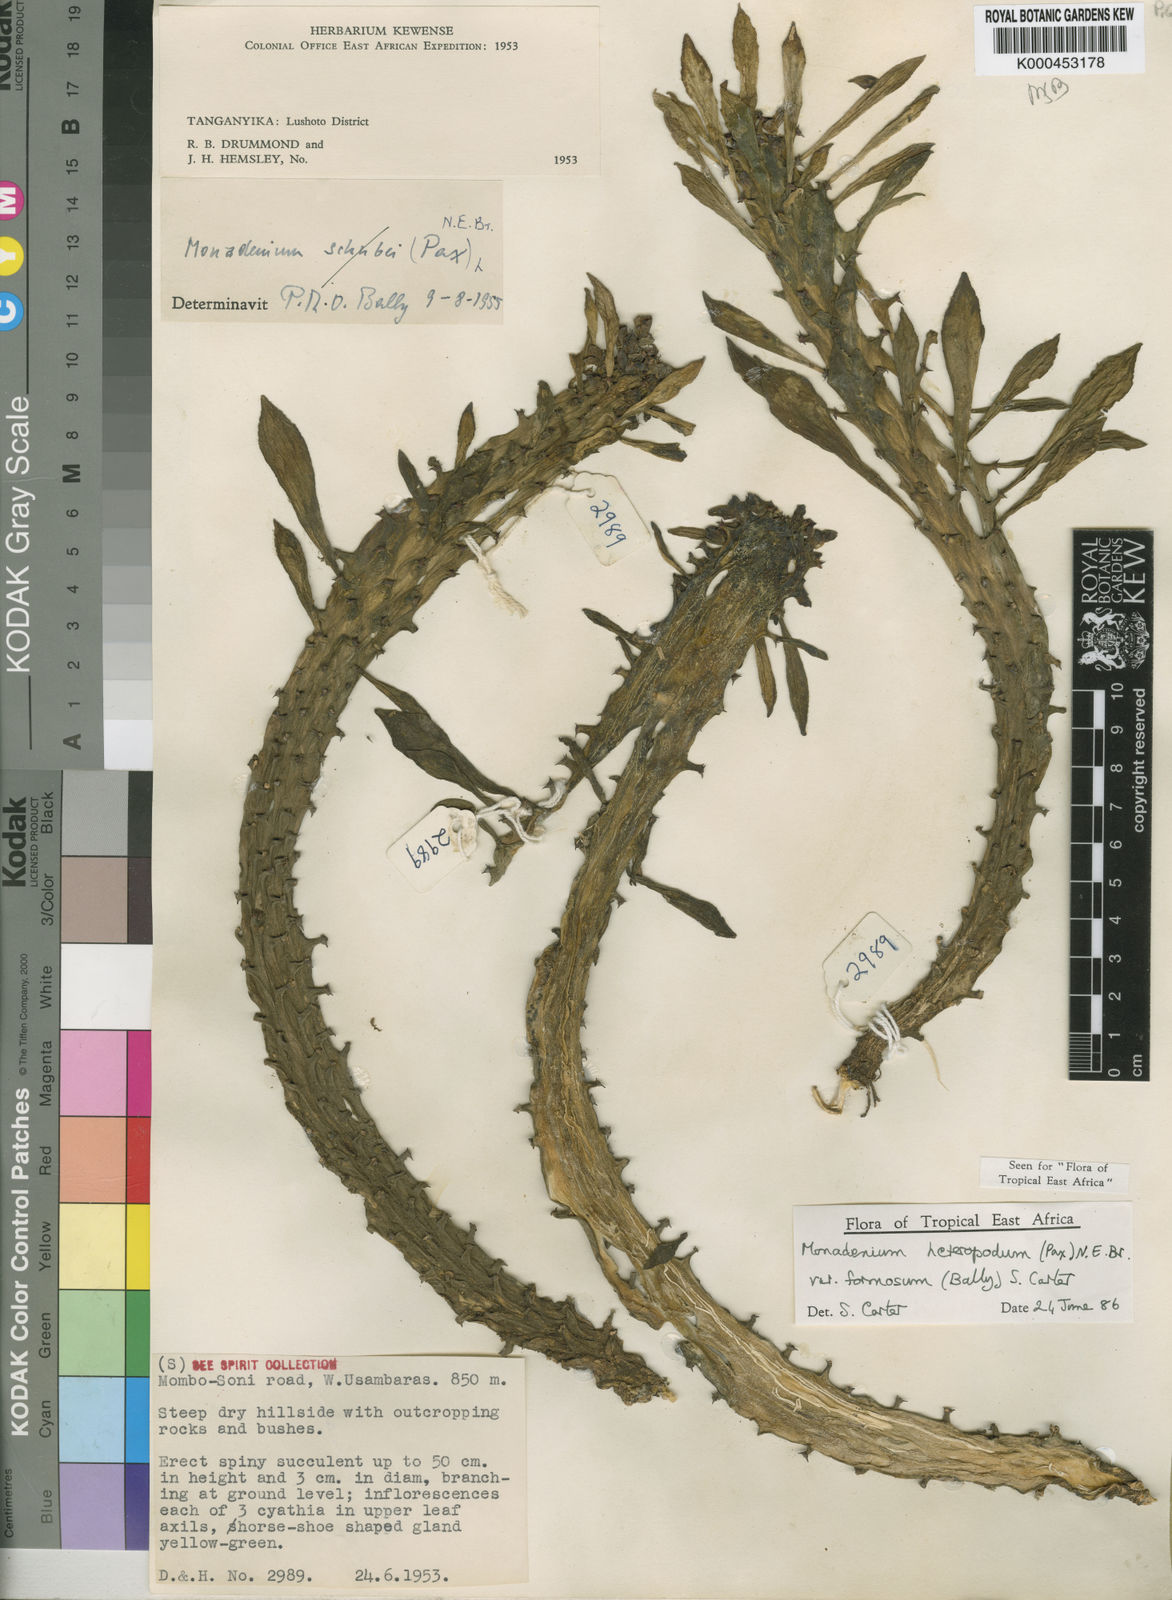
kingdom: Plantae
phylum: Tracheophyta
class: Magnoliopsida
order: Malpighiales
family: Euphorbiaceae
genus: Euphorbia
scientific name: Euphorbia heteropodum
